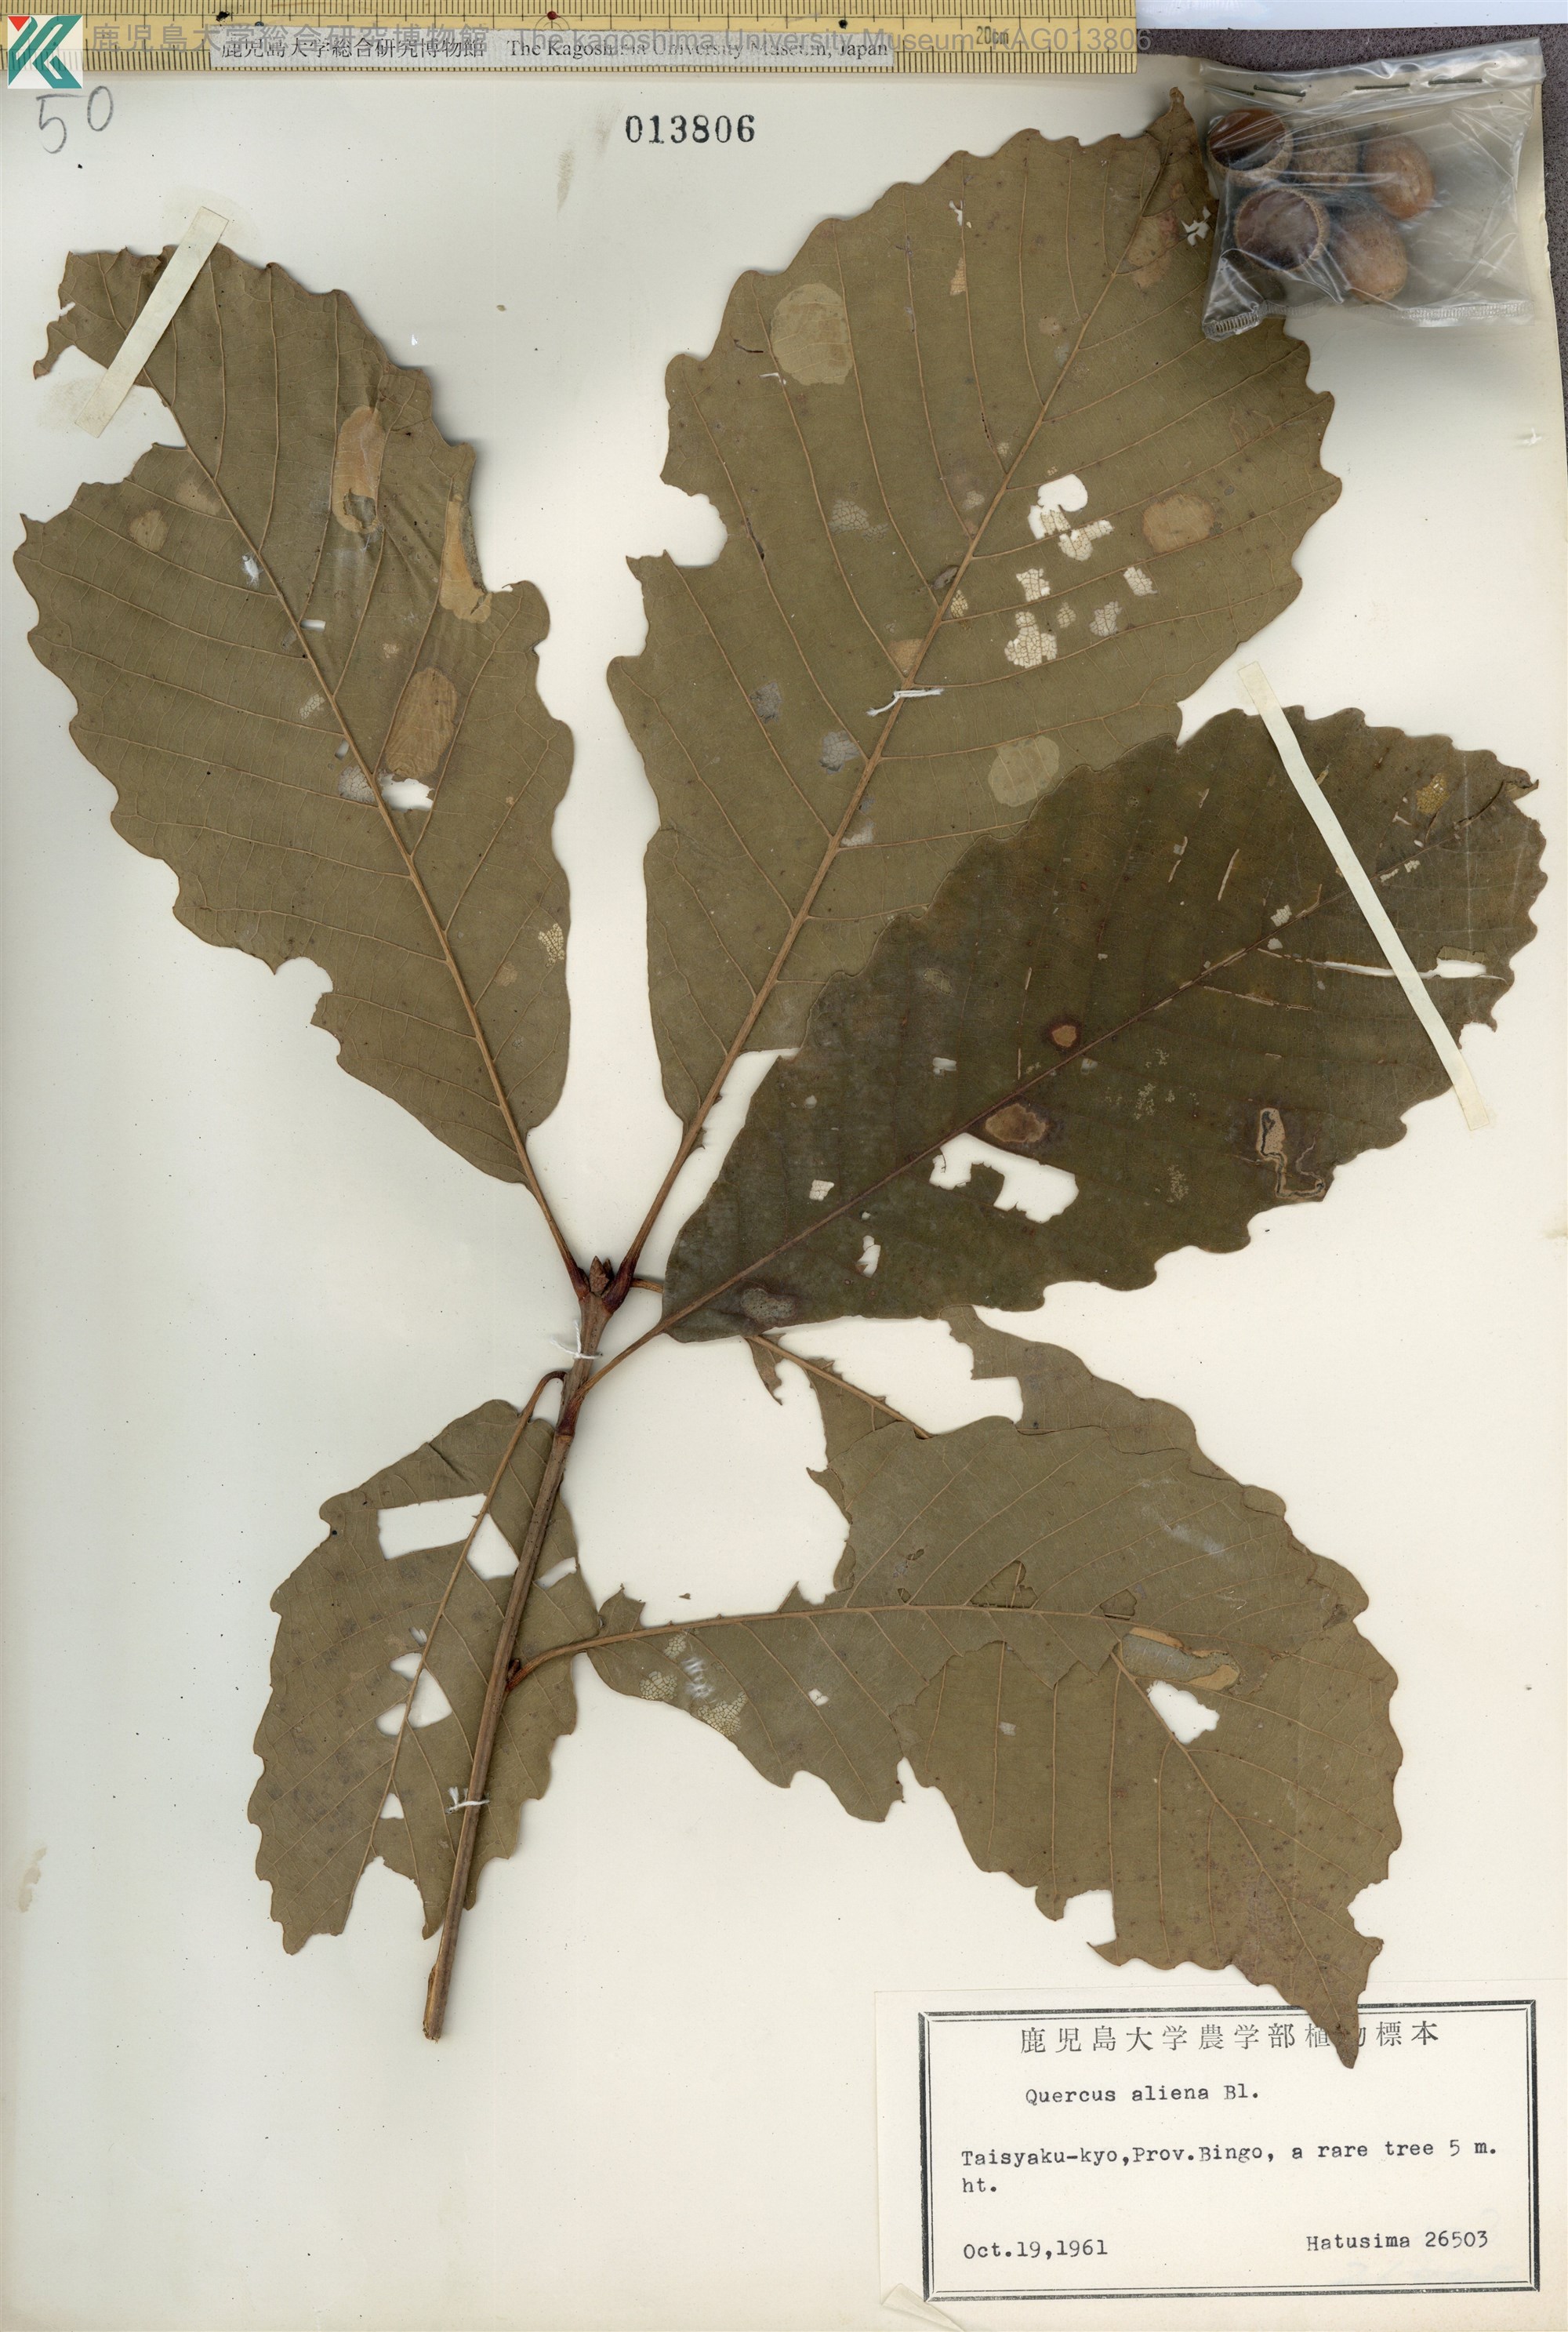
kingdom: Plantae
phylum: Tracheophyta
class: Magnoliopsida
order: Fagales
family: Fagaceae
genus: Quercus
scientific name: Quercus aliena
